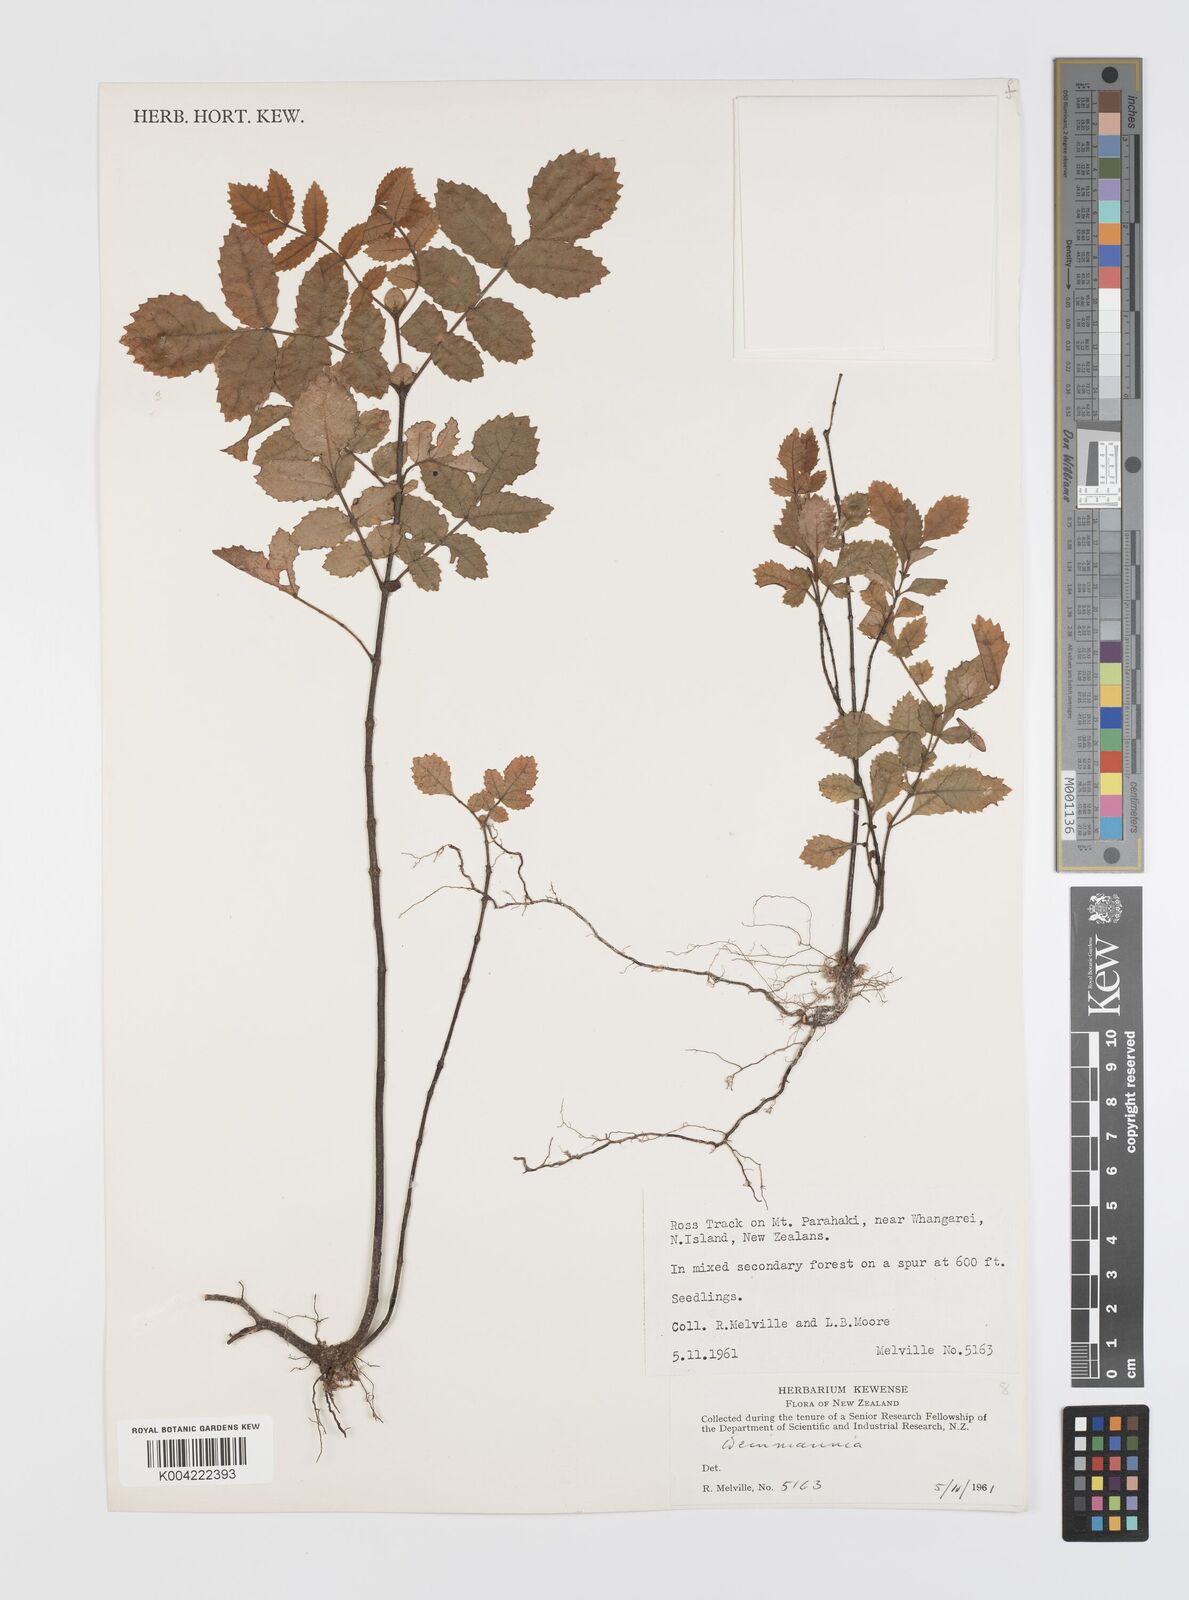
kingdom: Plantae
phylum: Tracheophyta
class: Magnoliopsida
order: Oxalidales
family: Cunoniaceae
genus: Weinmannia
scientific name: Weinmannia
